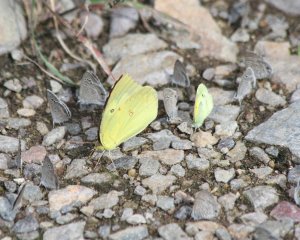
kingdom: Animalia
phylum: Arthropoda
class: Insecta
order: Lepidoptera
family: Pieridae
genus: Nathalis
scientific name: Nathalis iole
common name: Dainty Sulphur
